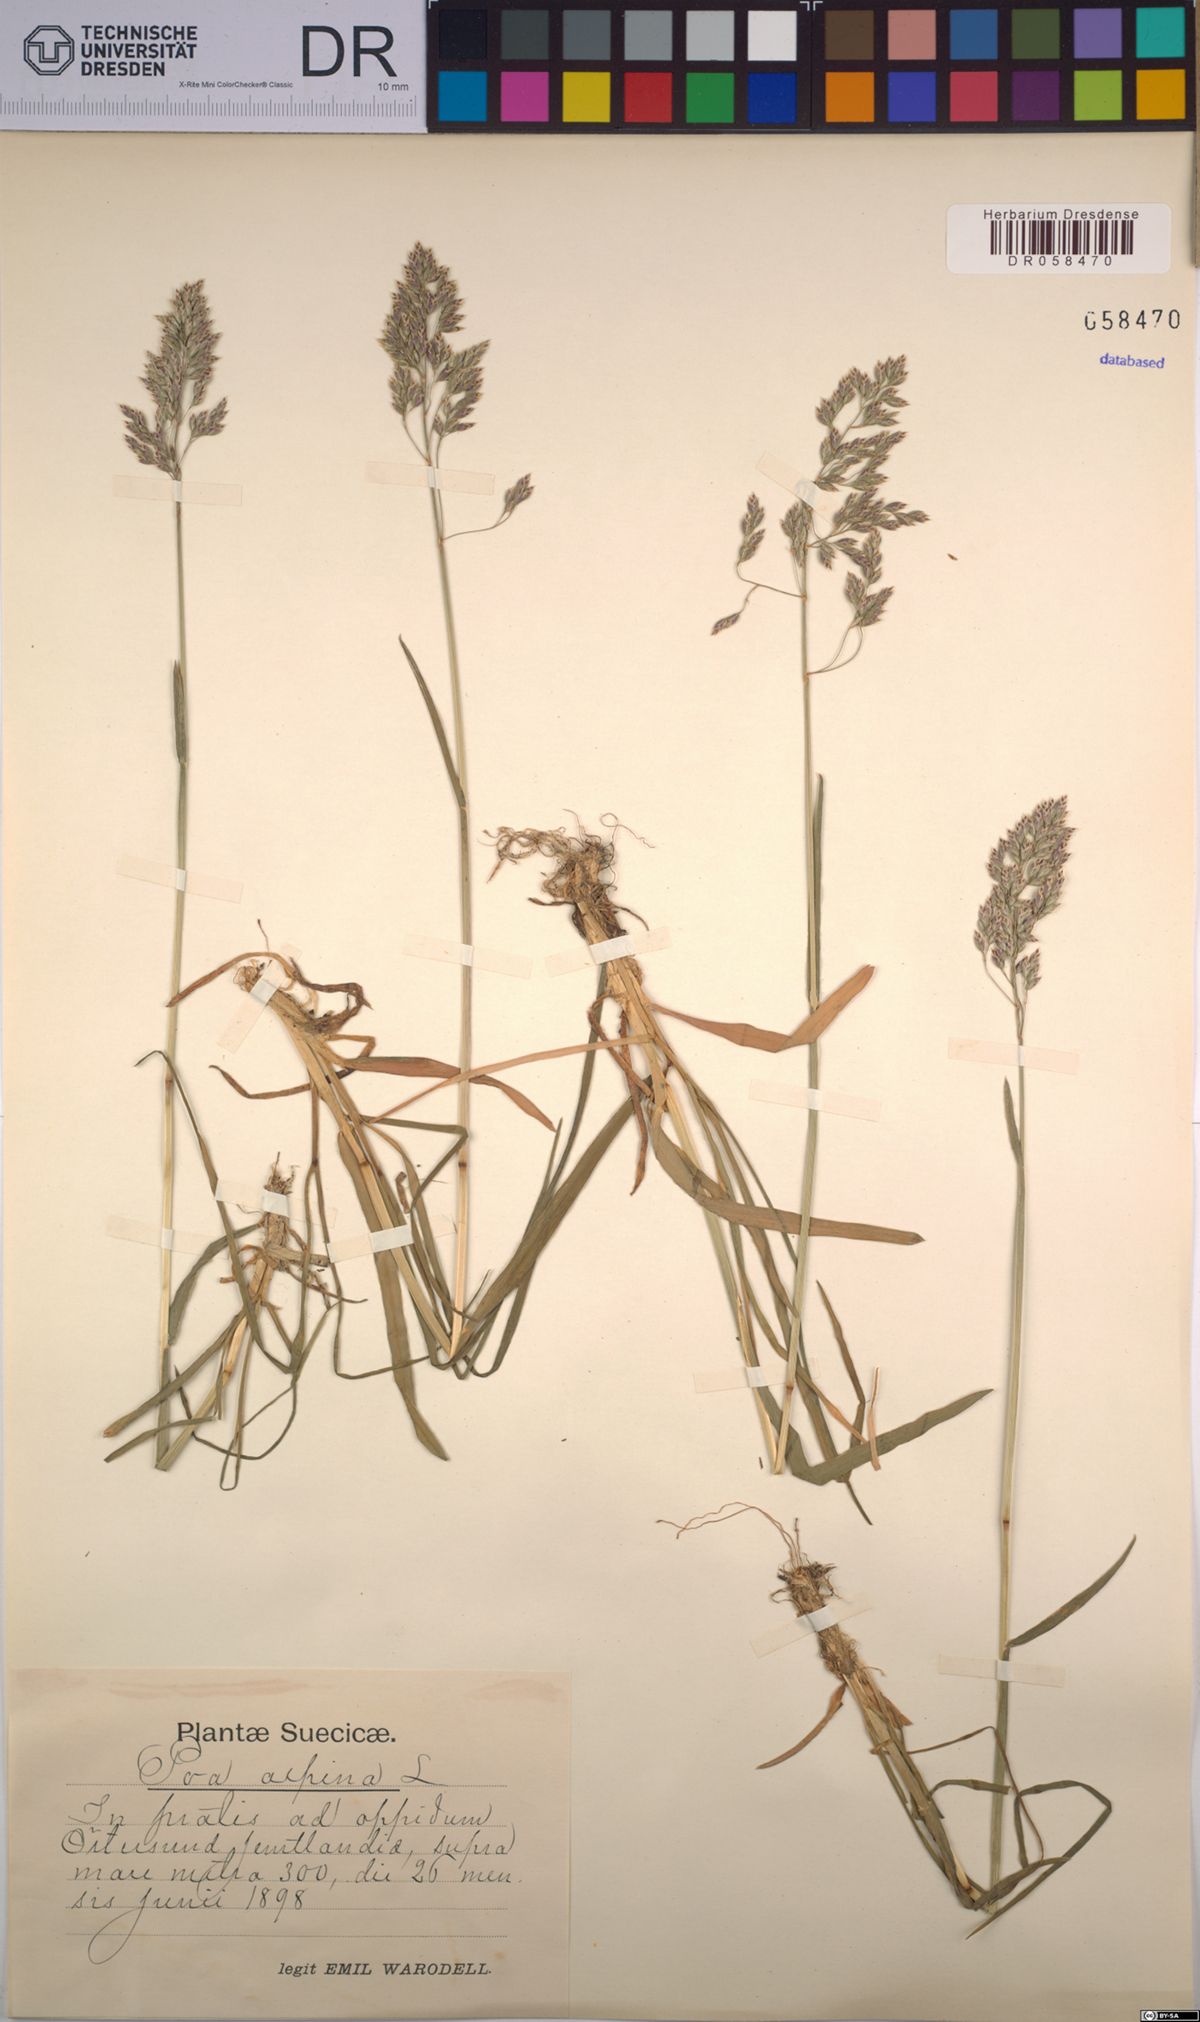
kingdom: Plantae
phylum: Tracheophyta
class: Liliopsida
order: Poales
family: Poaceae
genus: Poa
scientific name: Poa alpina
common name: Alpine bluegrass
